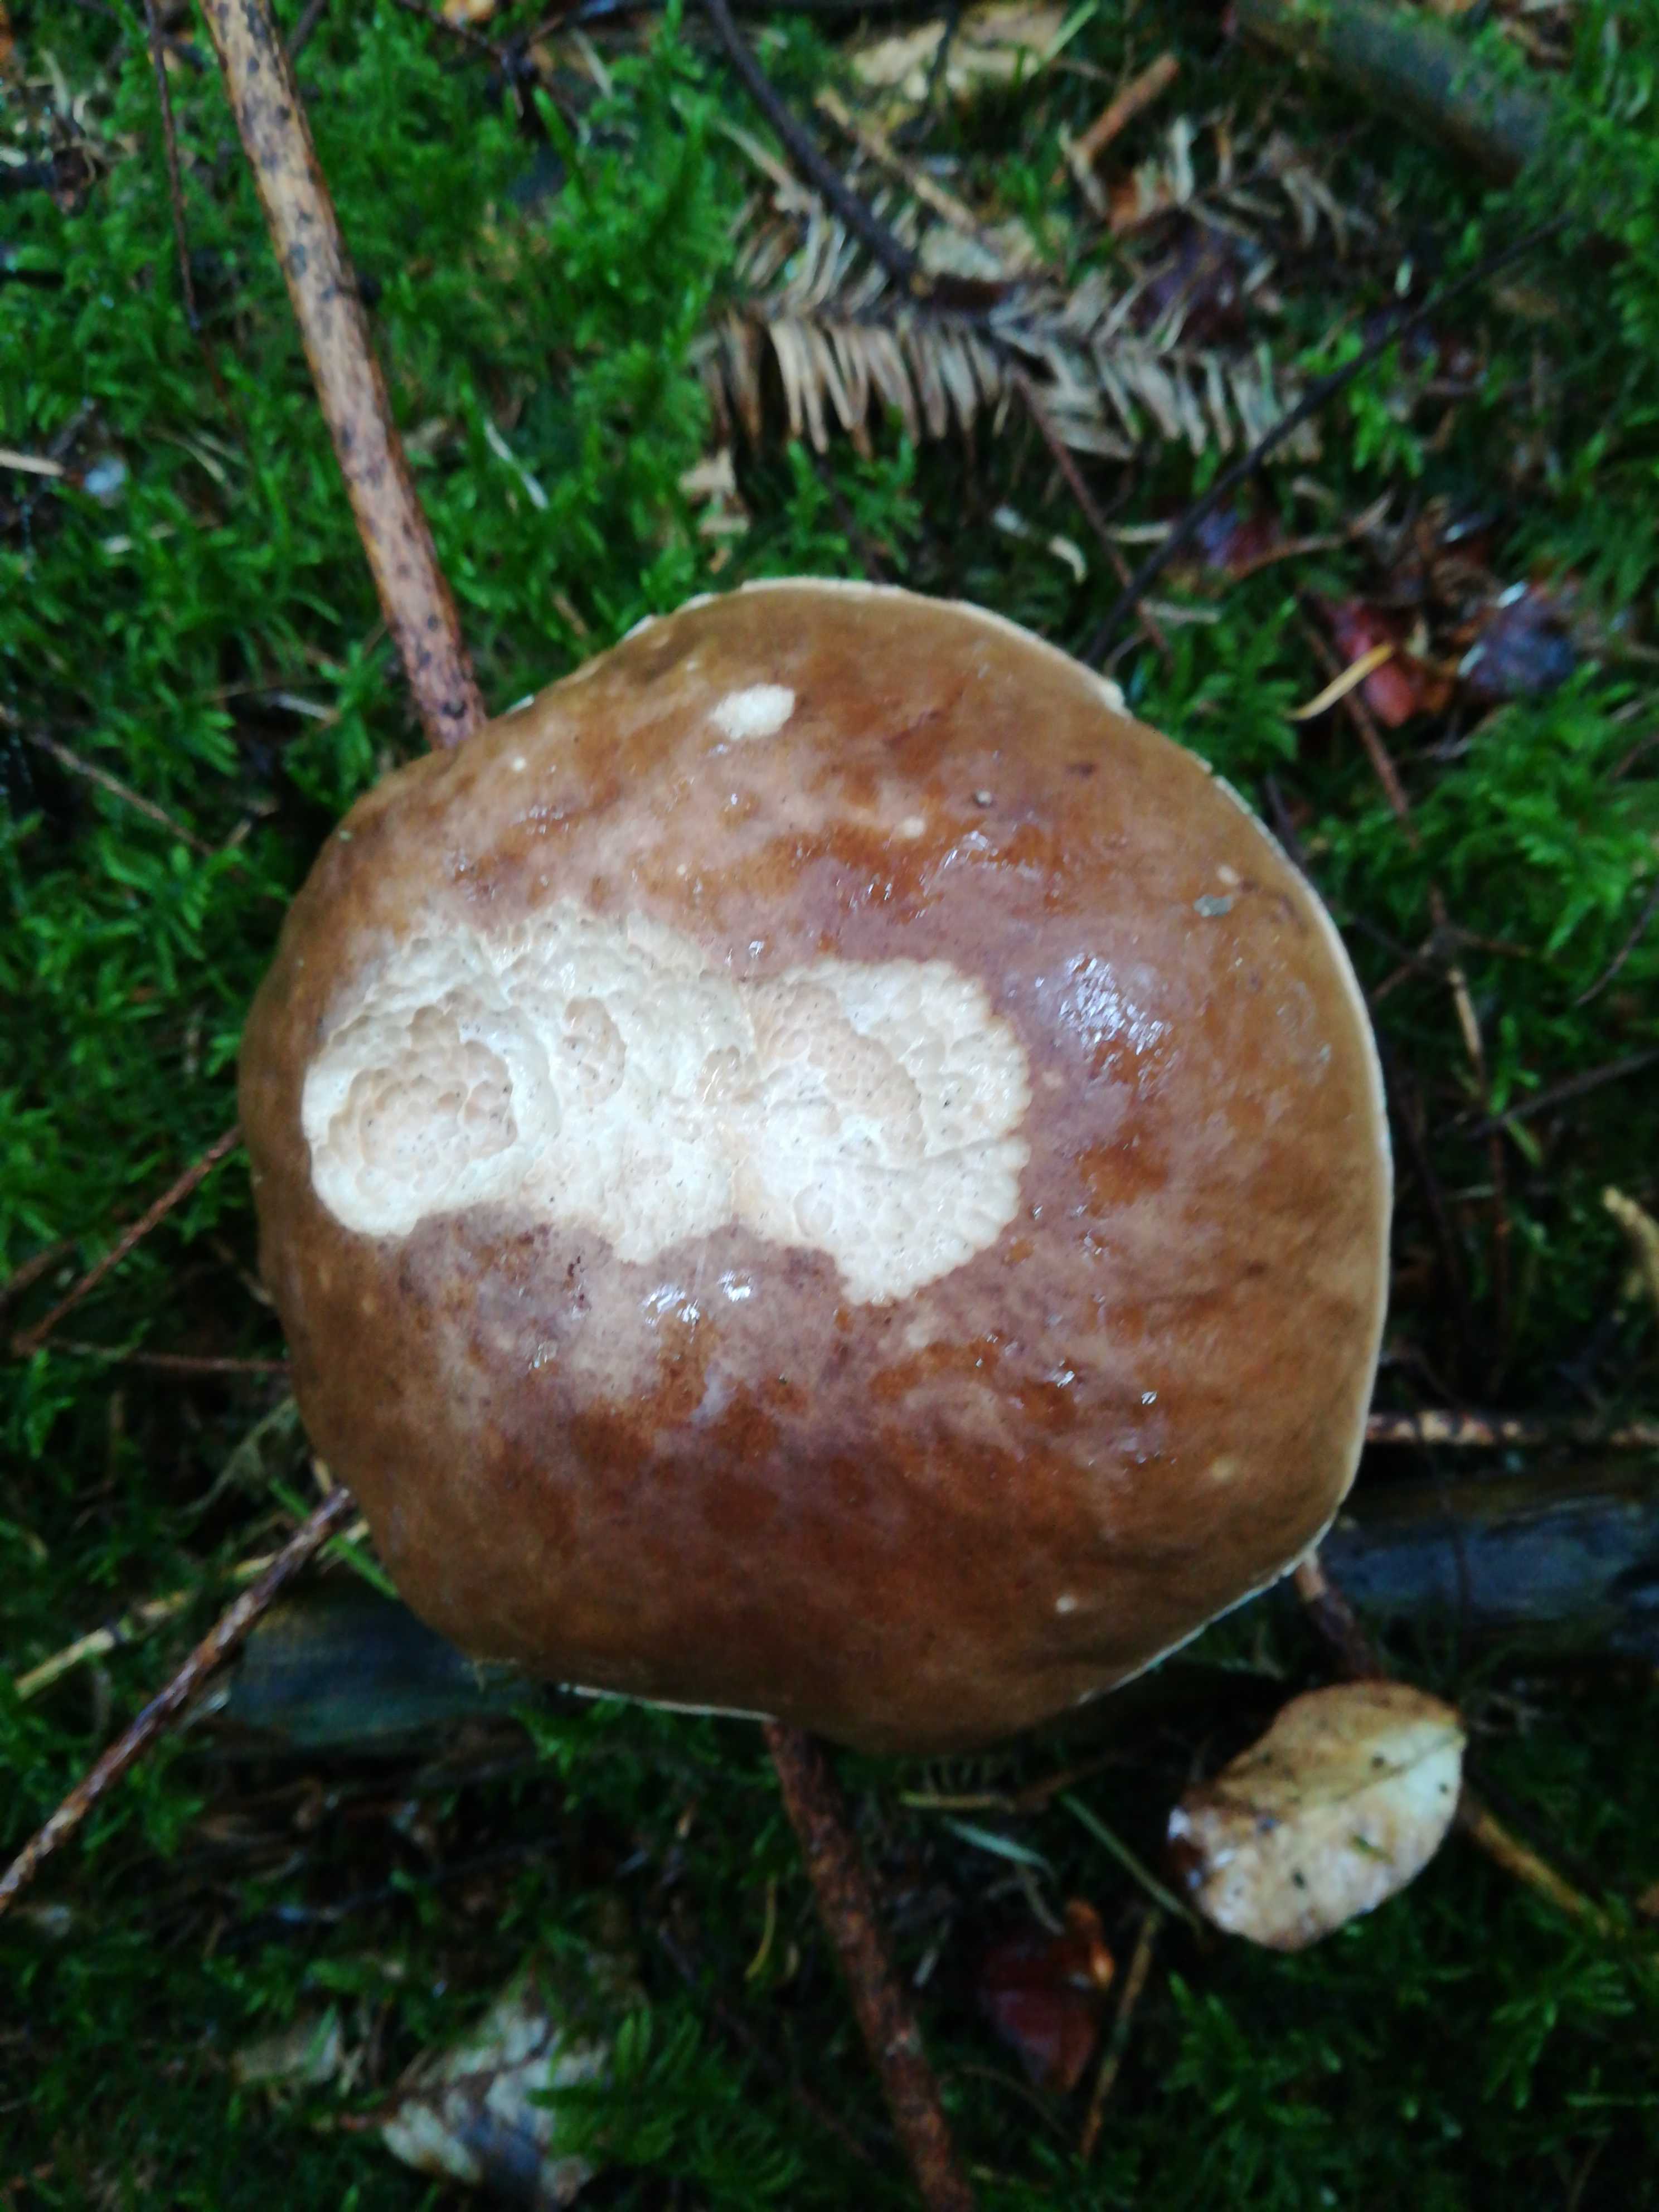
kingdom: Fungi
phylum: Basidiomycota
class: Agaricomycetes
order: Boletales
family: Boletaceae
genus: Boletus
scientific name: Boletus edulis
